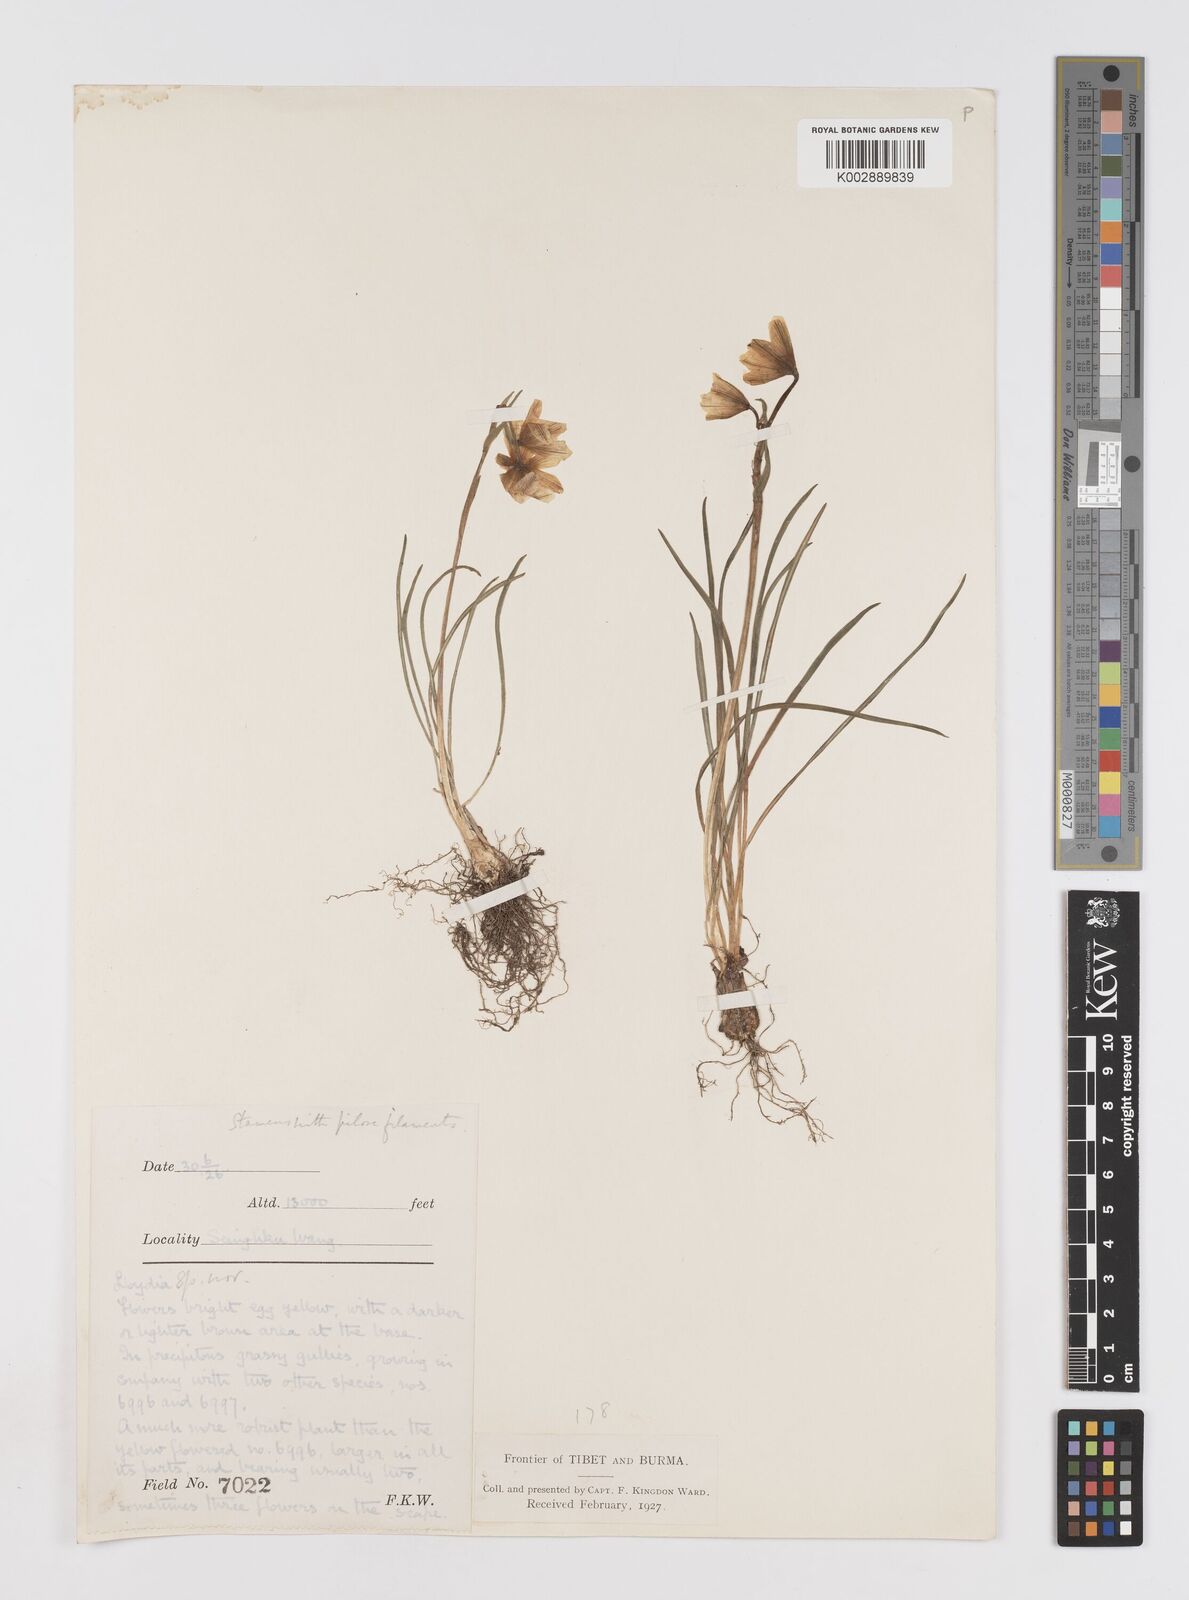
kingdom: Plantae
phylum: Tracheophyta
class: Liliopsida
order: Liliales
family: Liliaceae
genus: Gagea
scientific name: Gagea
